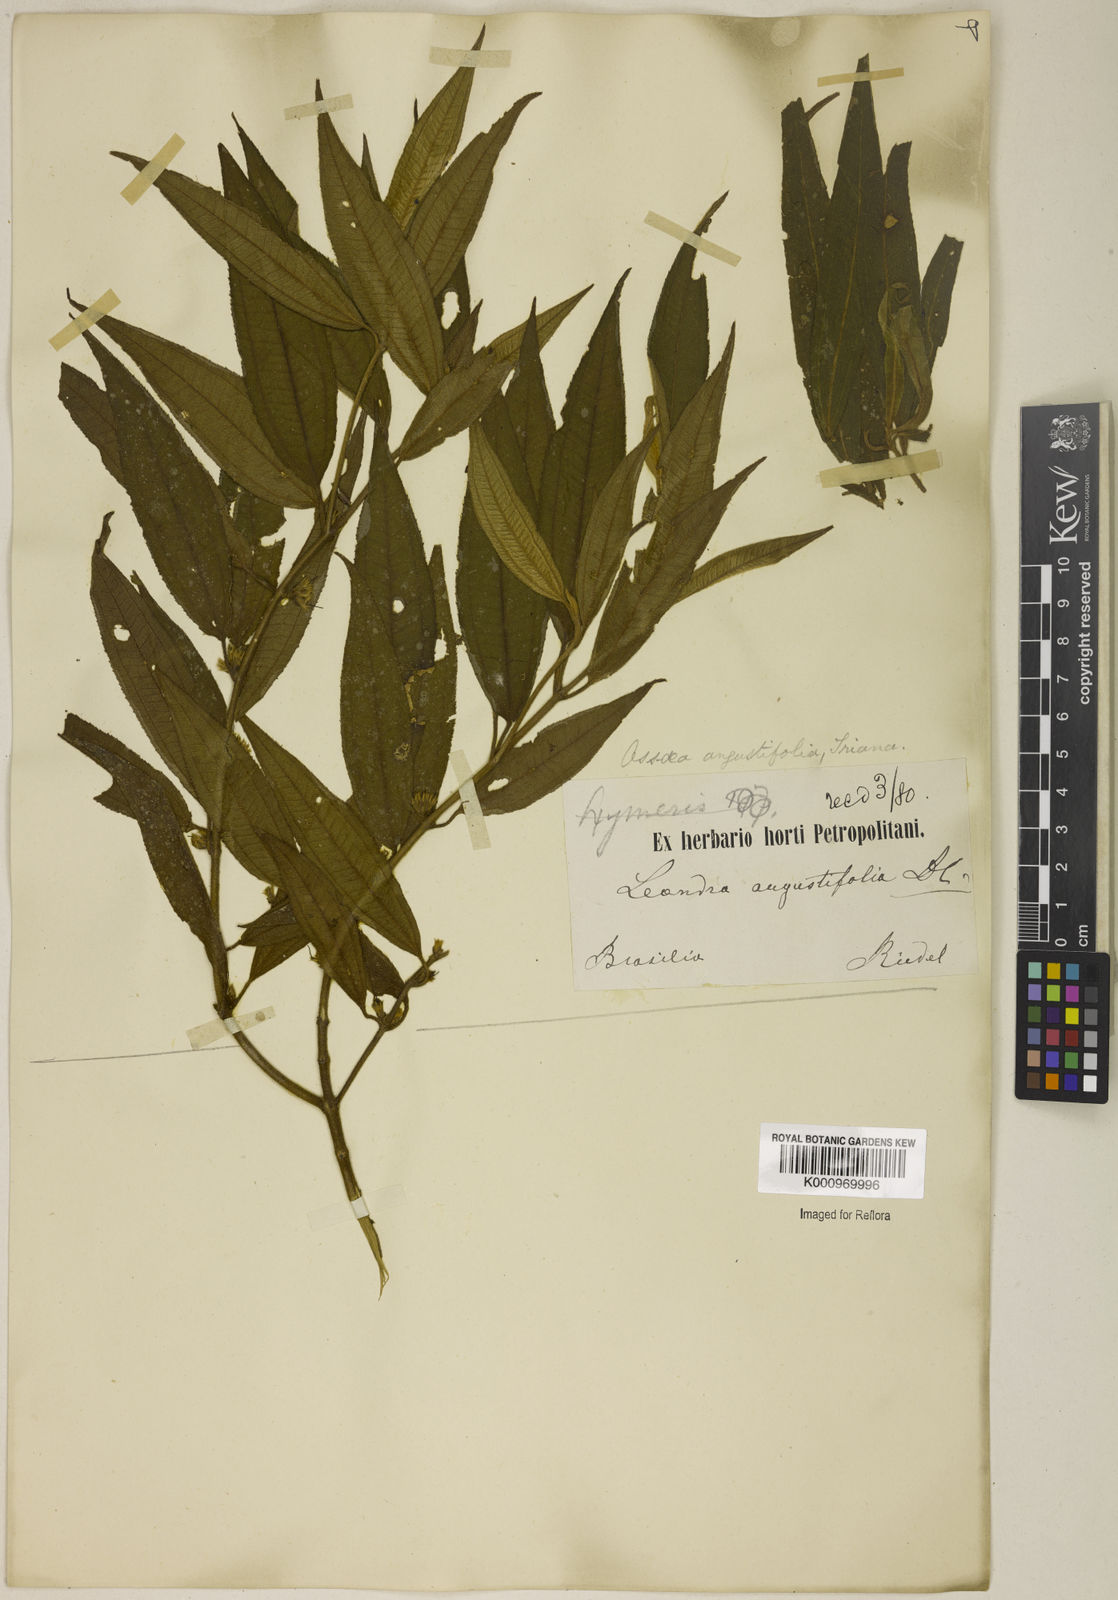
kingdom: Plantae
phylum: Tracheophyta
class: Magnoliopsida
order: Myrtales
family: Melastomataceae
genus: Miconia
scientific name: Miconia corcovadensis
